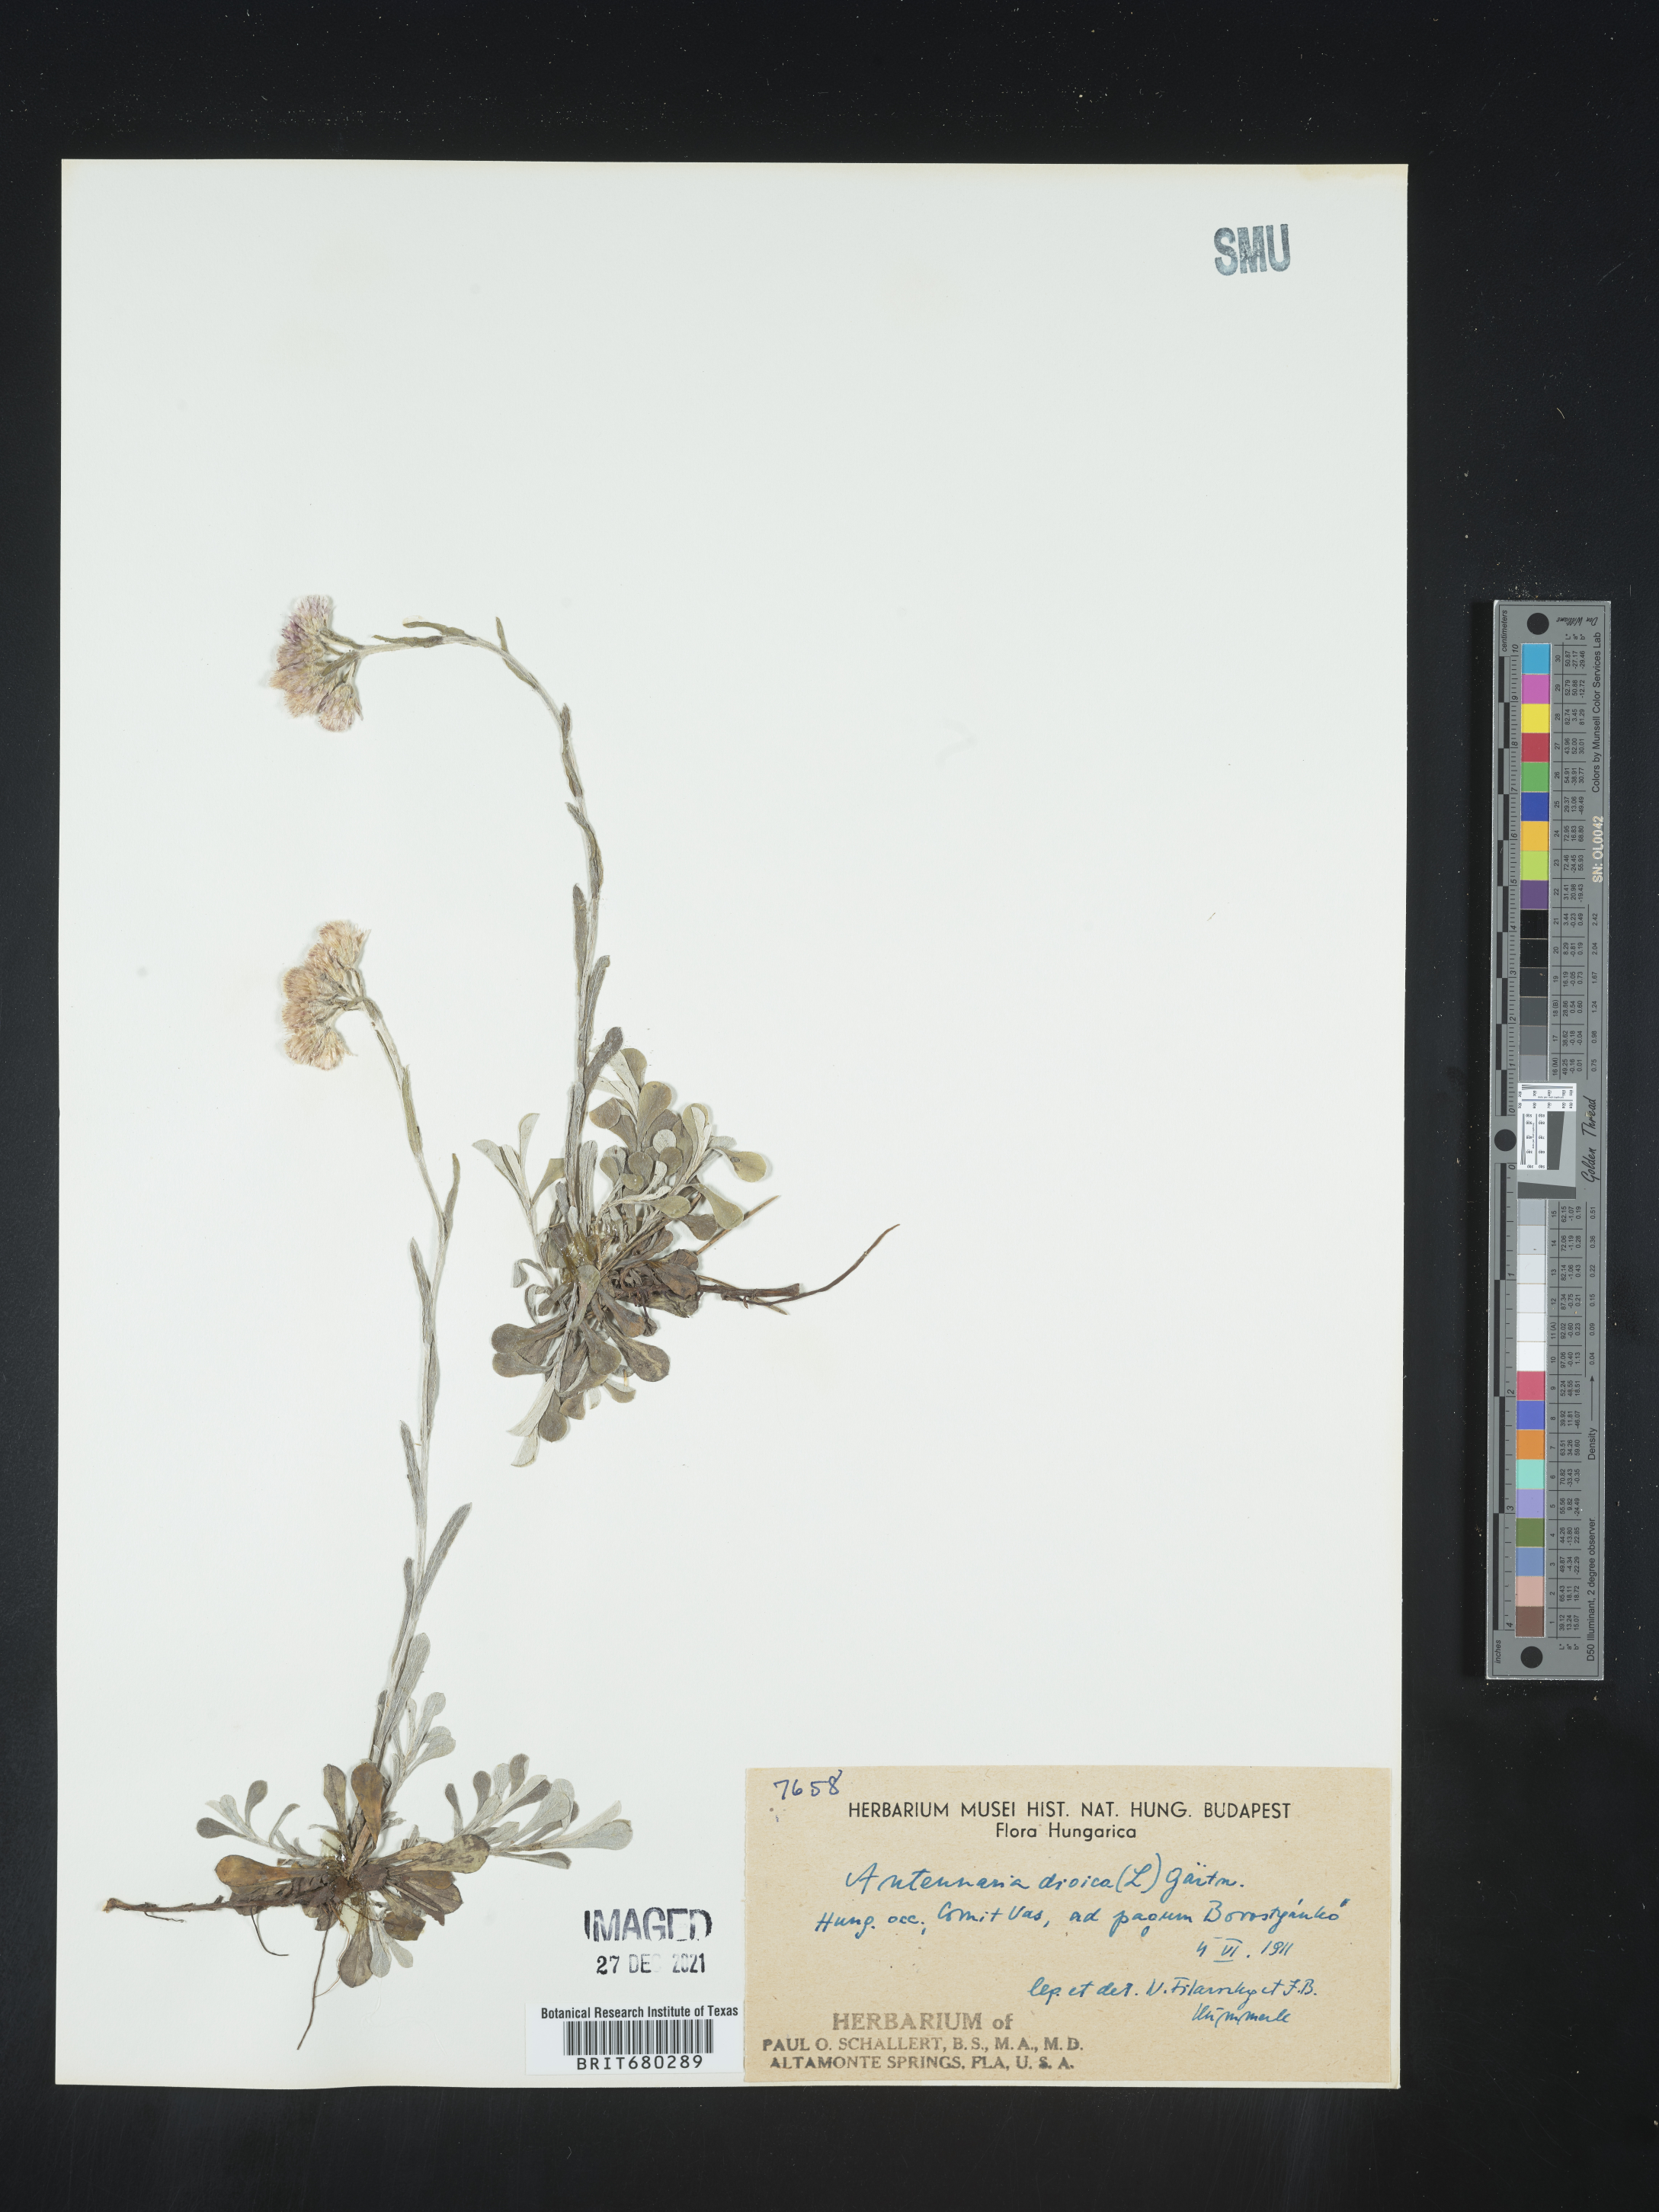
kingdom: Plantae
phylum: Tracheophyta
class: Magnoliopsida
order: Asterales
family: Asteraceae
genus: Antennaria
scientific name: Antennaria dioica
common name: Mountain everlasting
